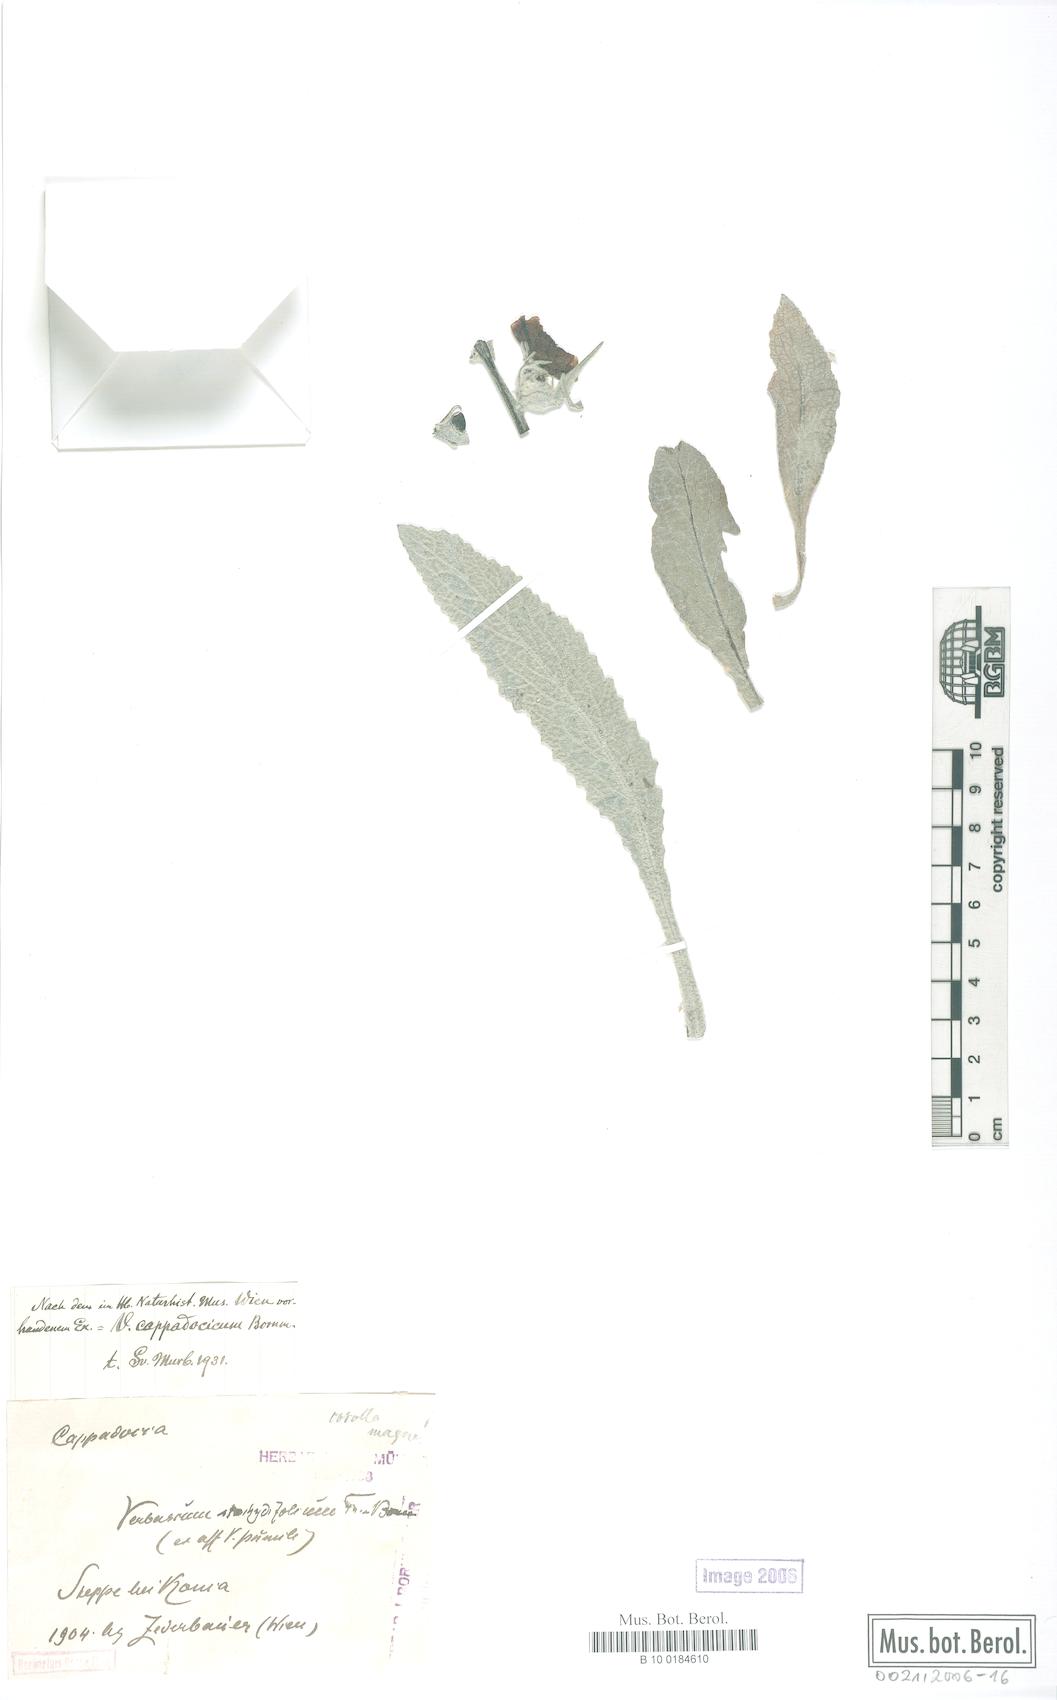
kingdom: Plantae
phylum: Tracheophyta
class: Magnoliopsida
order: Lamiales
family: Scrophulariaceae
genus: Verbascum
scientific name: Verbascum cappadocicum
